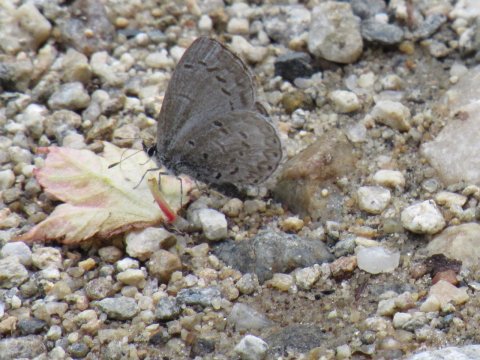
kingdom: Animalia
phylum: Arthropoda
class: Insecta
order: Lepidoptera
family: Lycaenidae
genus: Celastrina
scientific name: Celastrina lucia
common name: Northern Spring Azure
